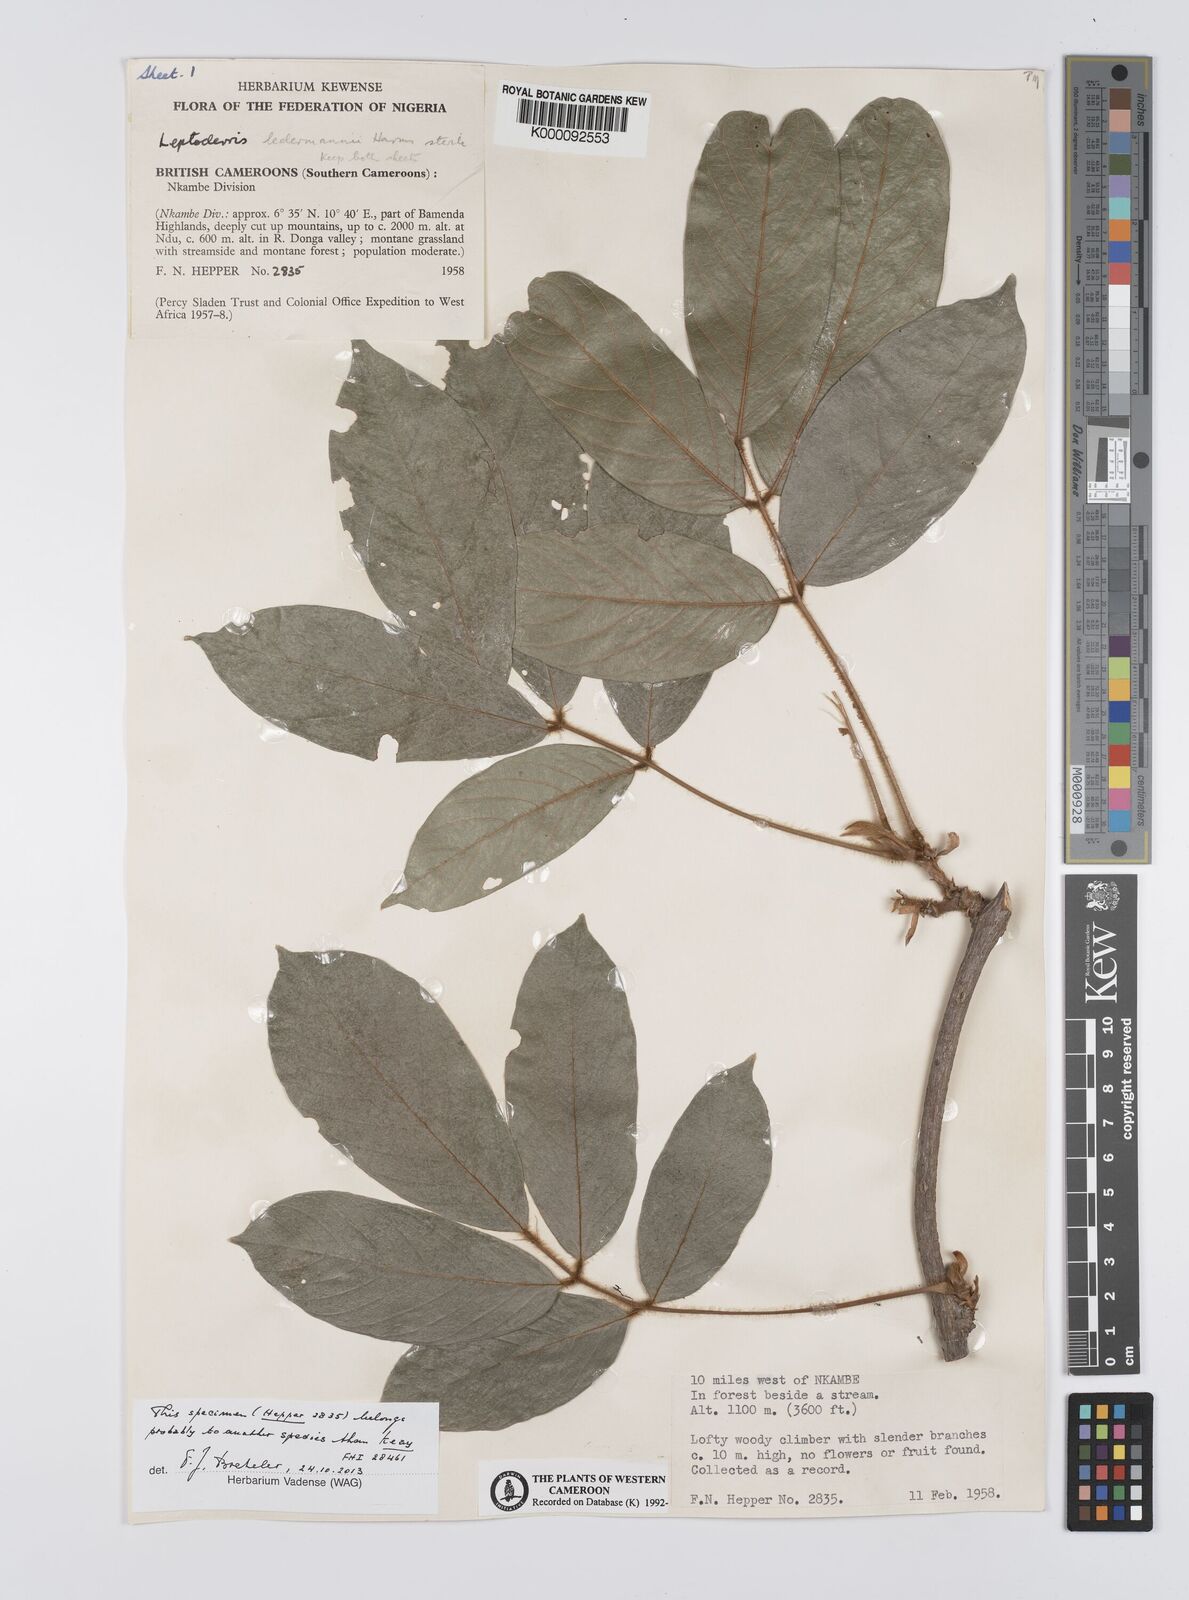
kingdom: Plantae
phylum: Tracheophyta
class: Magnoliopsida
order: Fabales
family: Fabaceae
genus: Leptoderris
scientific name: Leptoderris ledermannii
